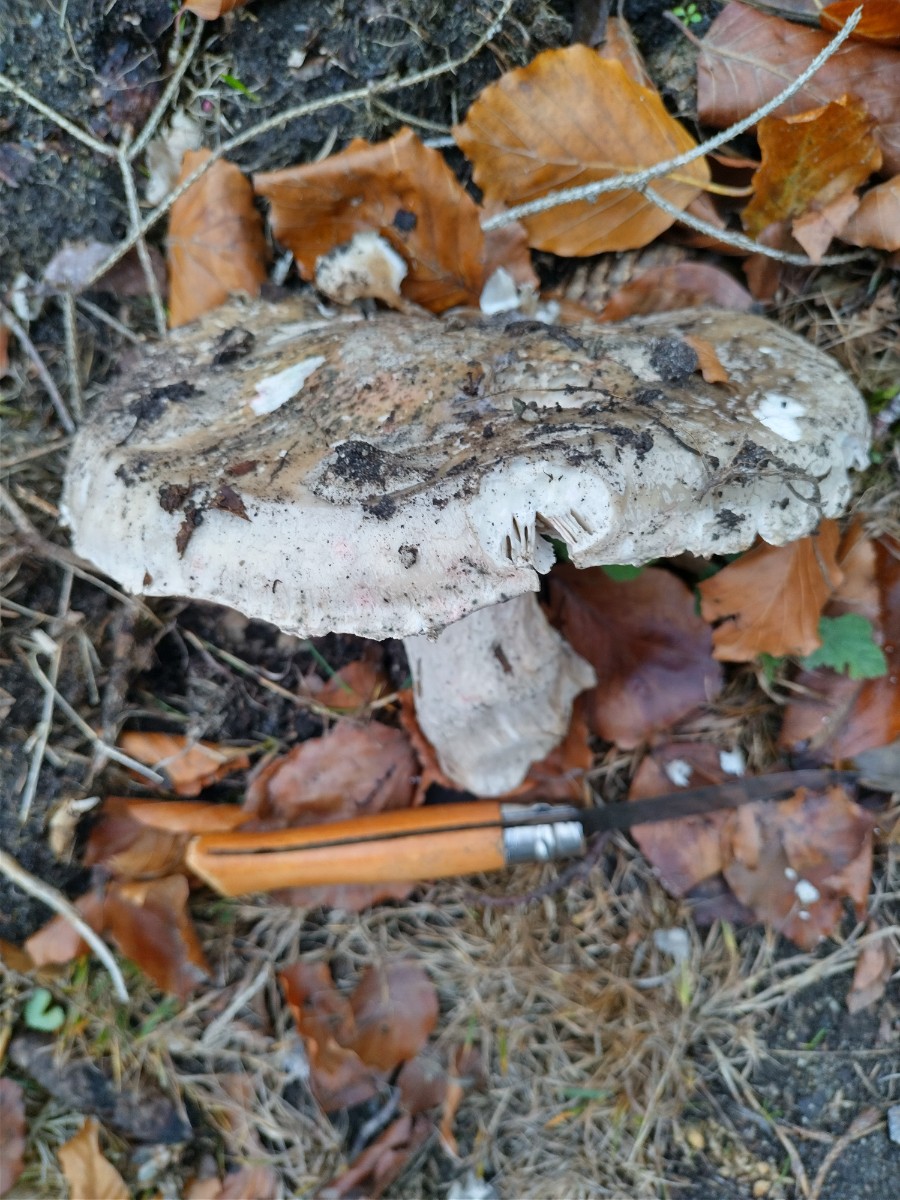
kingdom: Fungi
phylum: Basidiomycota
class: Agaricomycetes
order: Agaricales
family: Amanitaceae
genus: Amanita
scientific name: Amanita
